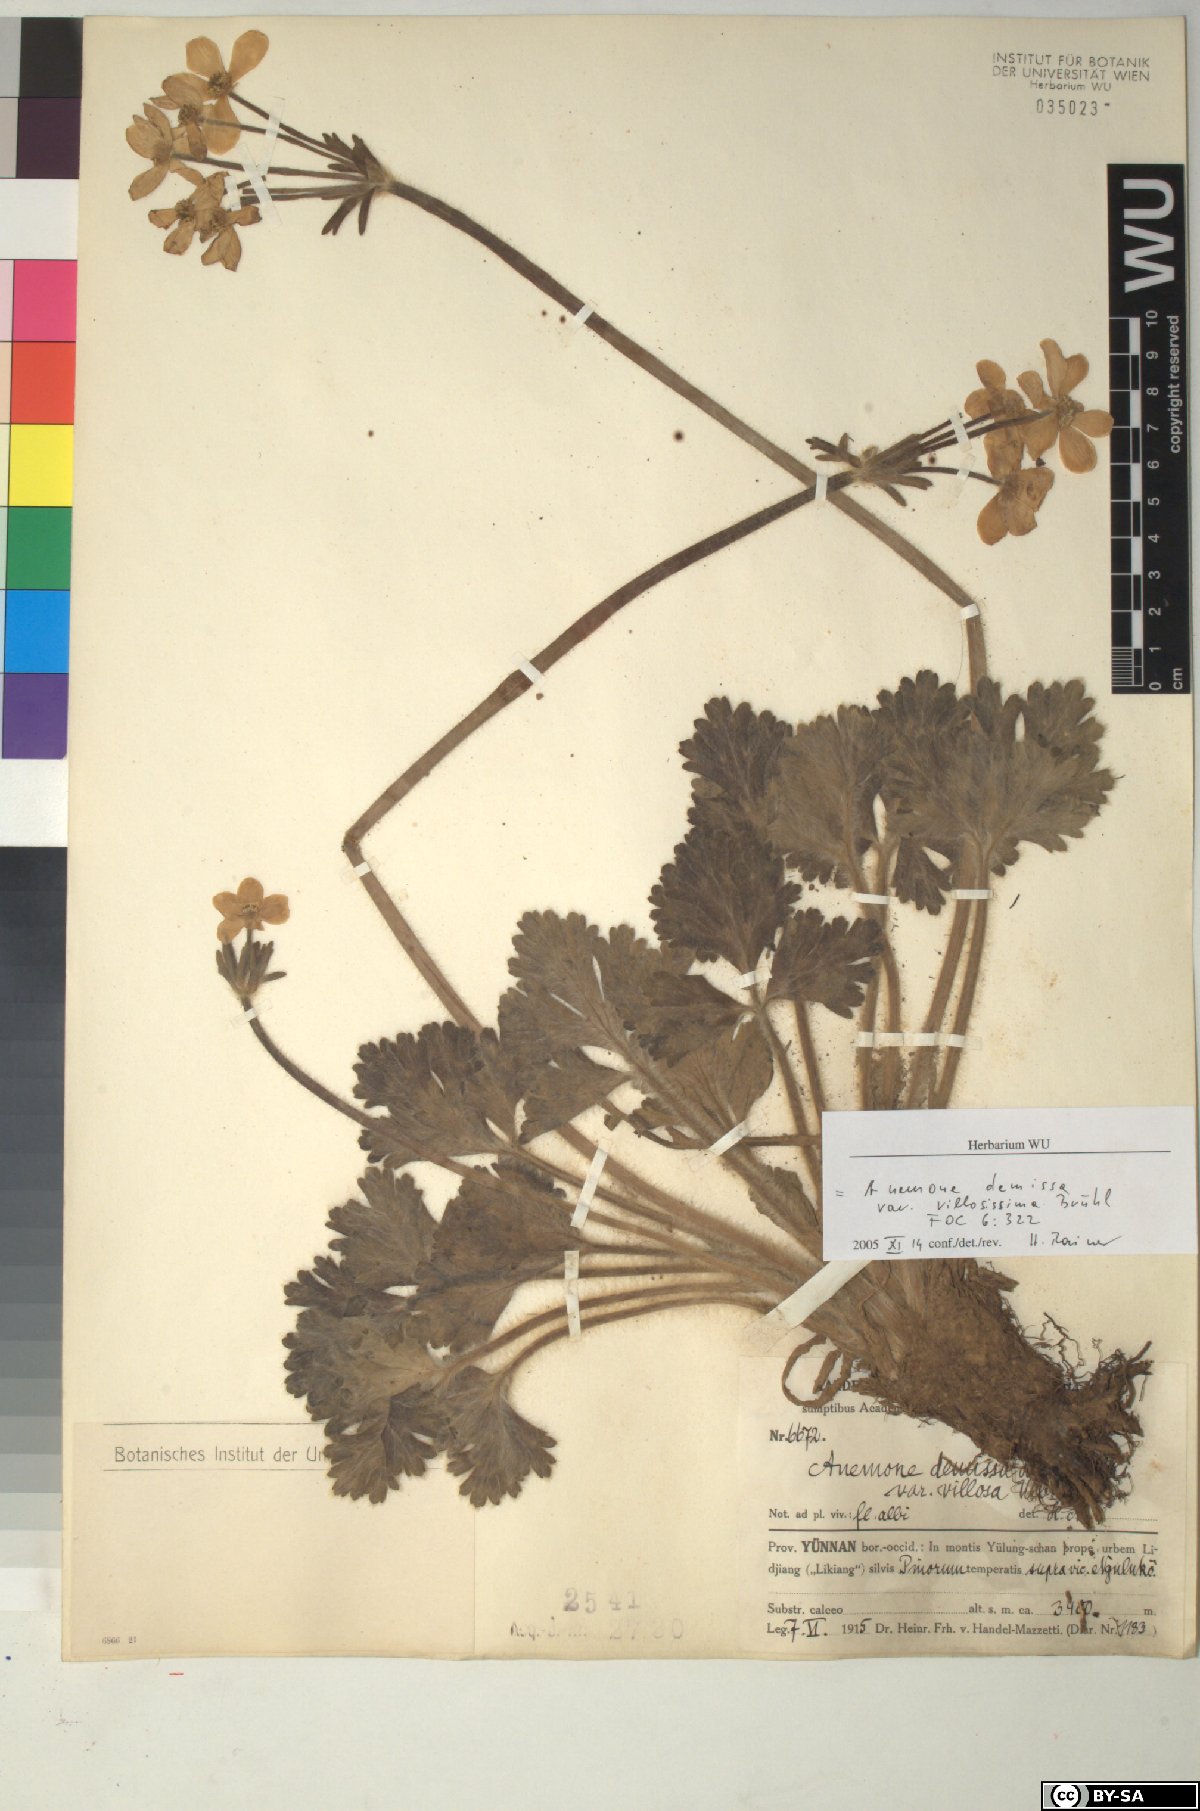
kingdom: Plantae
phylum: Tracheophyta
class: Magnoliopsida
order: Ranunculales
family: Ranunculaceae
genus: Anemonastrum
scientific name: Anemonastrum demissum
